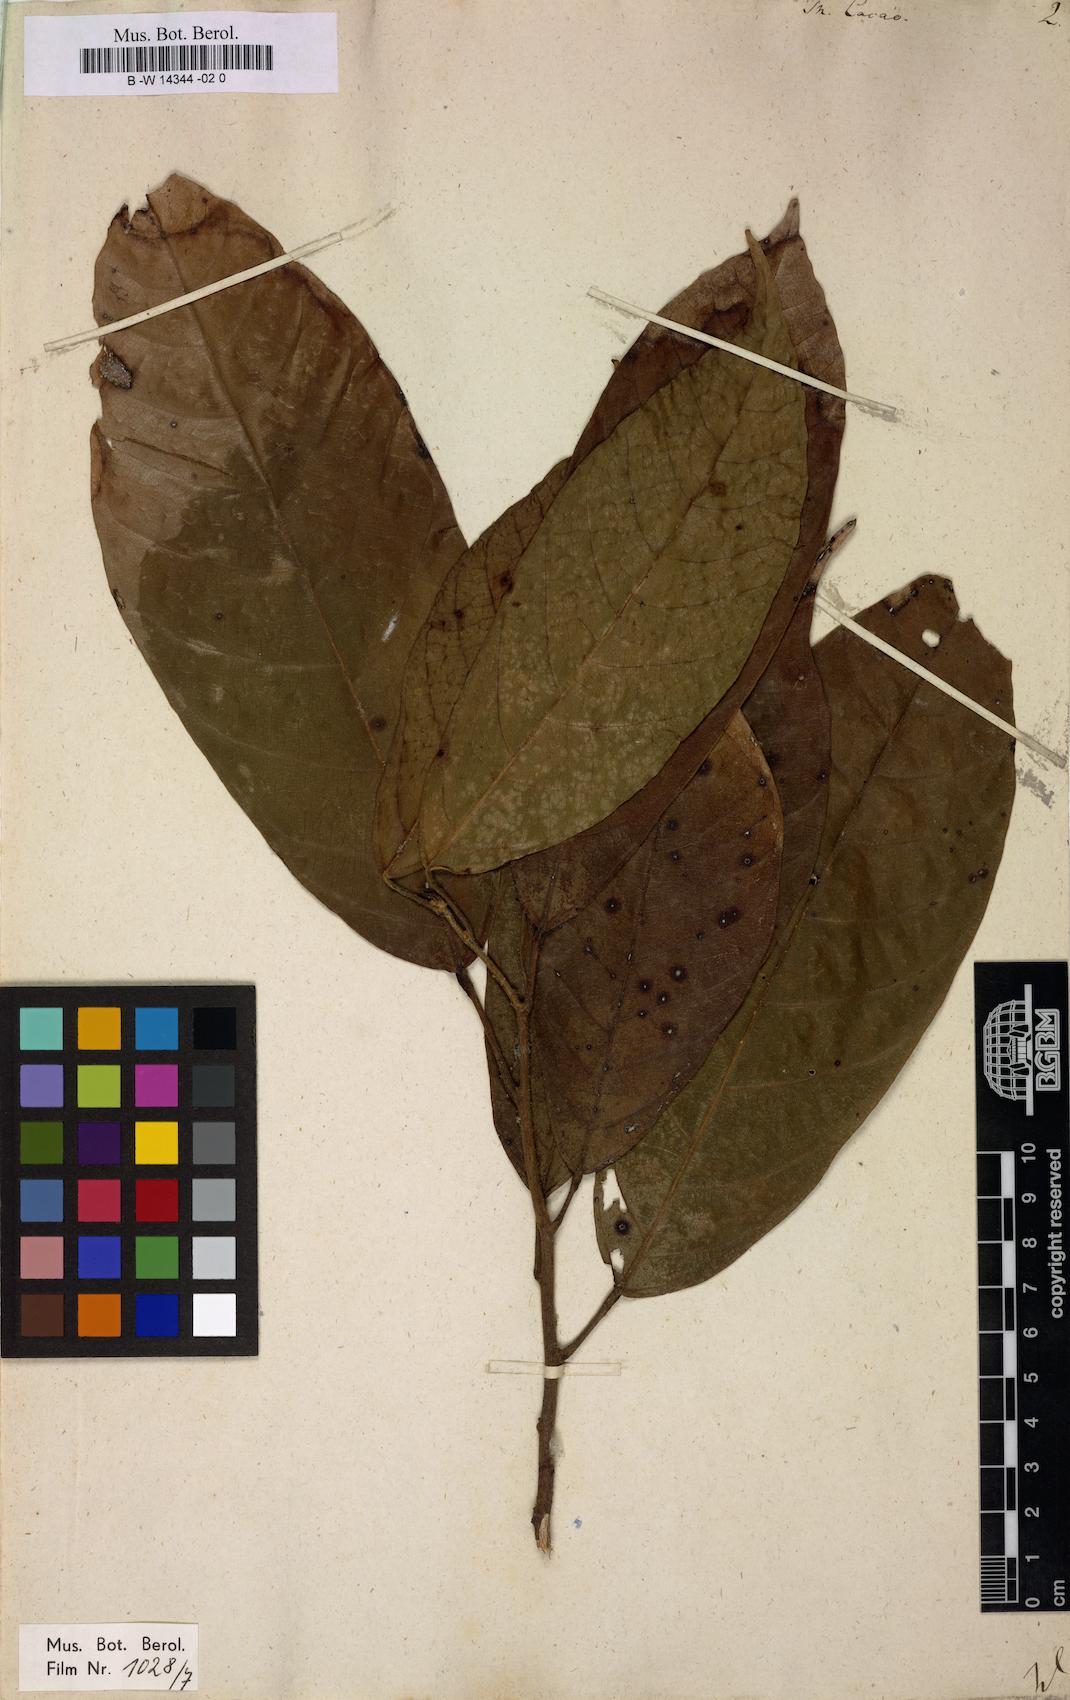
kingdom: Plantae
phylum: Tracheophyta
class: Magnoliopsida
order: Malvales
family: Malvaceae
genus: Theobroma
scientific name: Theobroma cacao
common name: Cocoa
